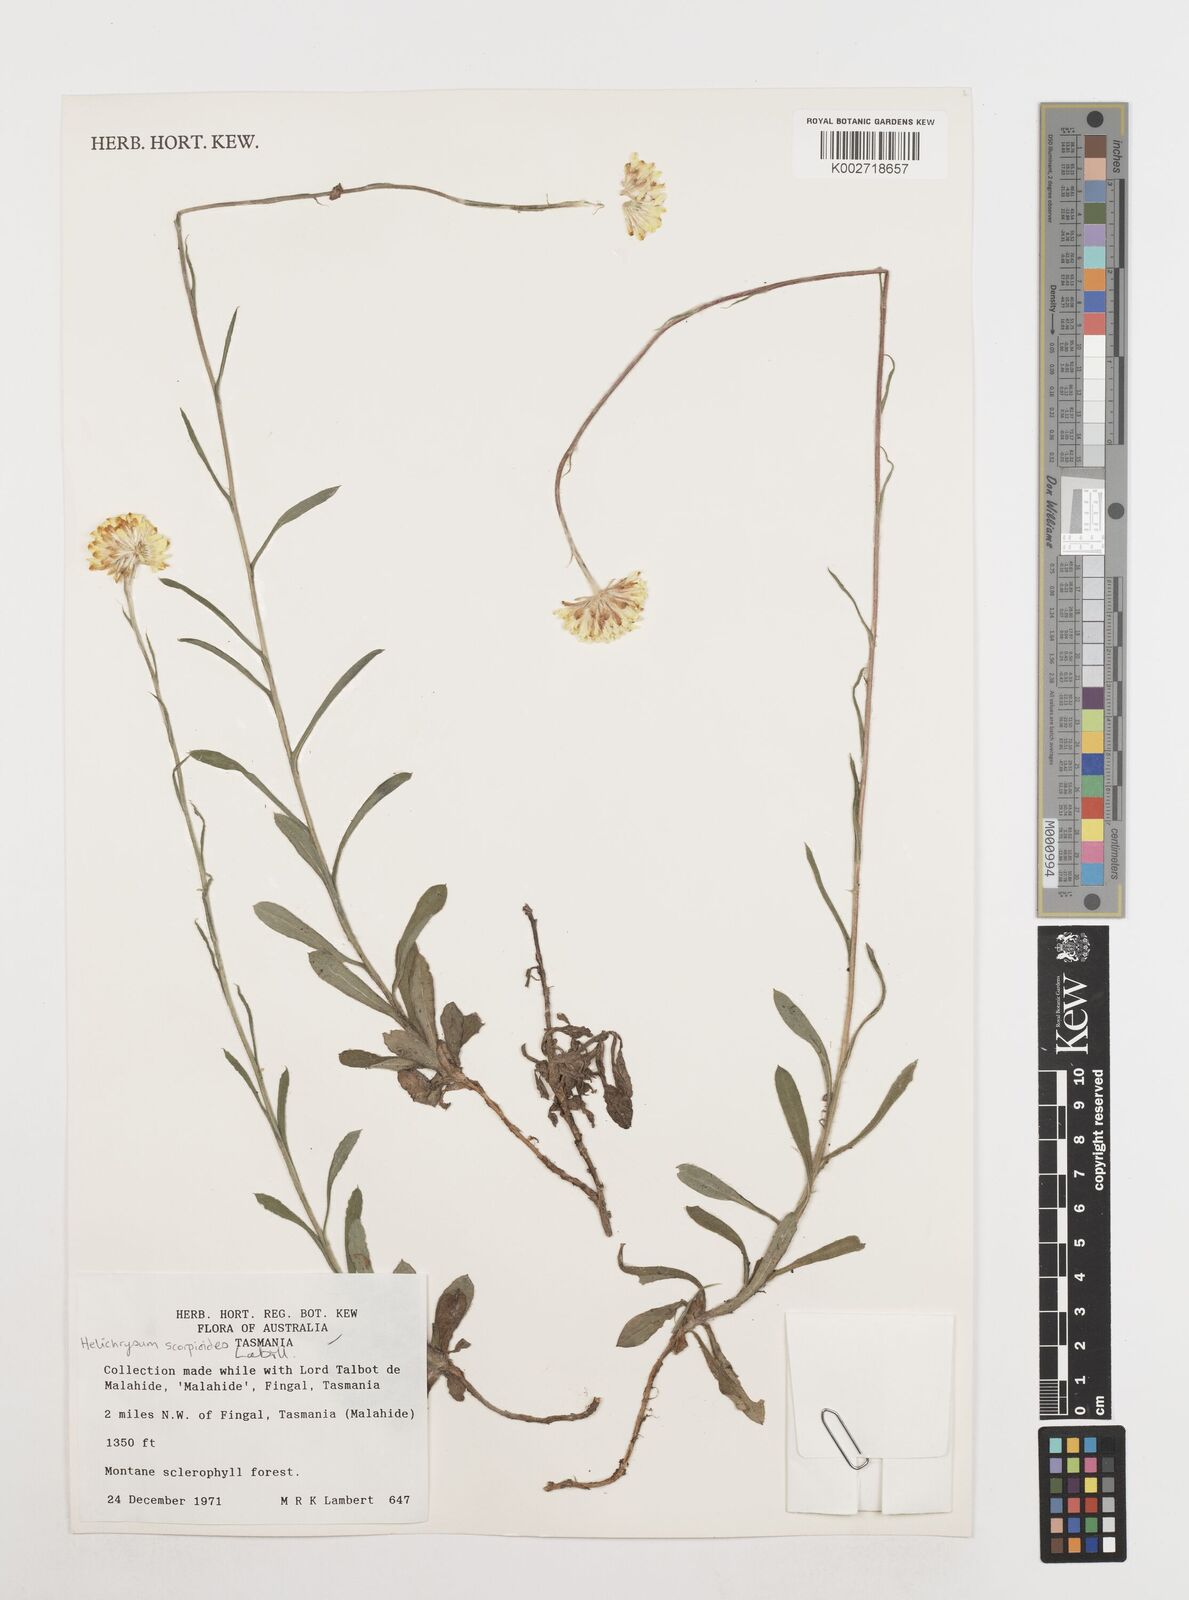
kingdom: Plantae
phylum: Tracheophyta
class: Magnoliopsida
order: Asterales
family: Asteraceae
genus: Coronidium
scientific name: Coronidium scorpioides
